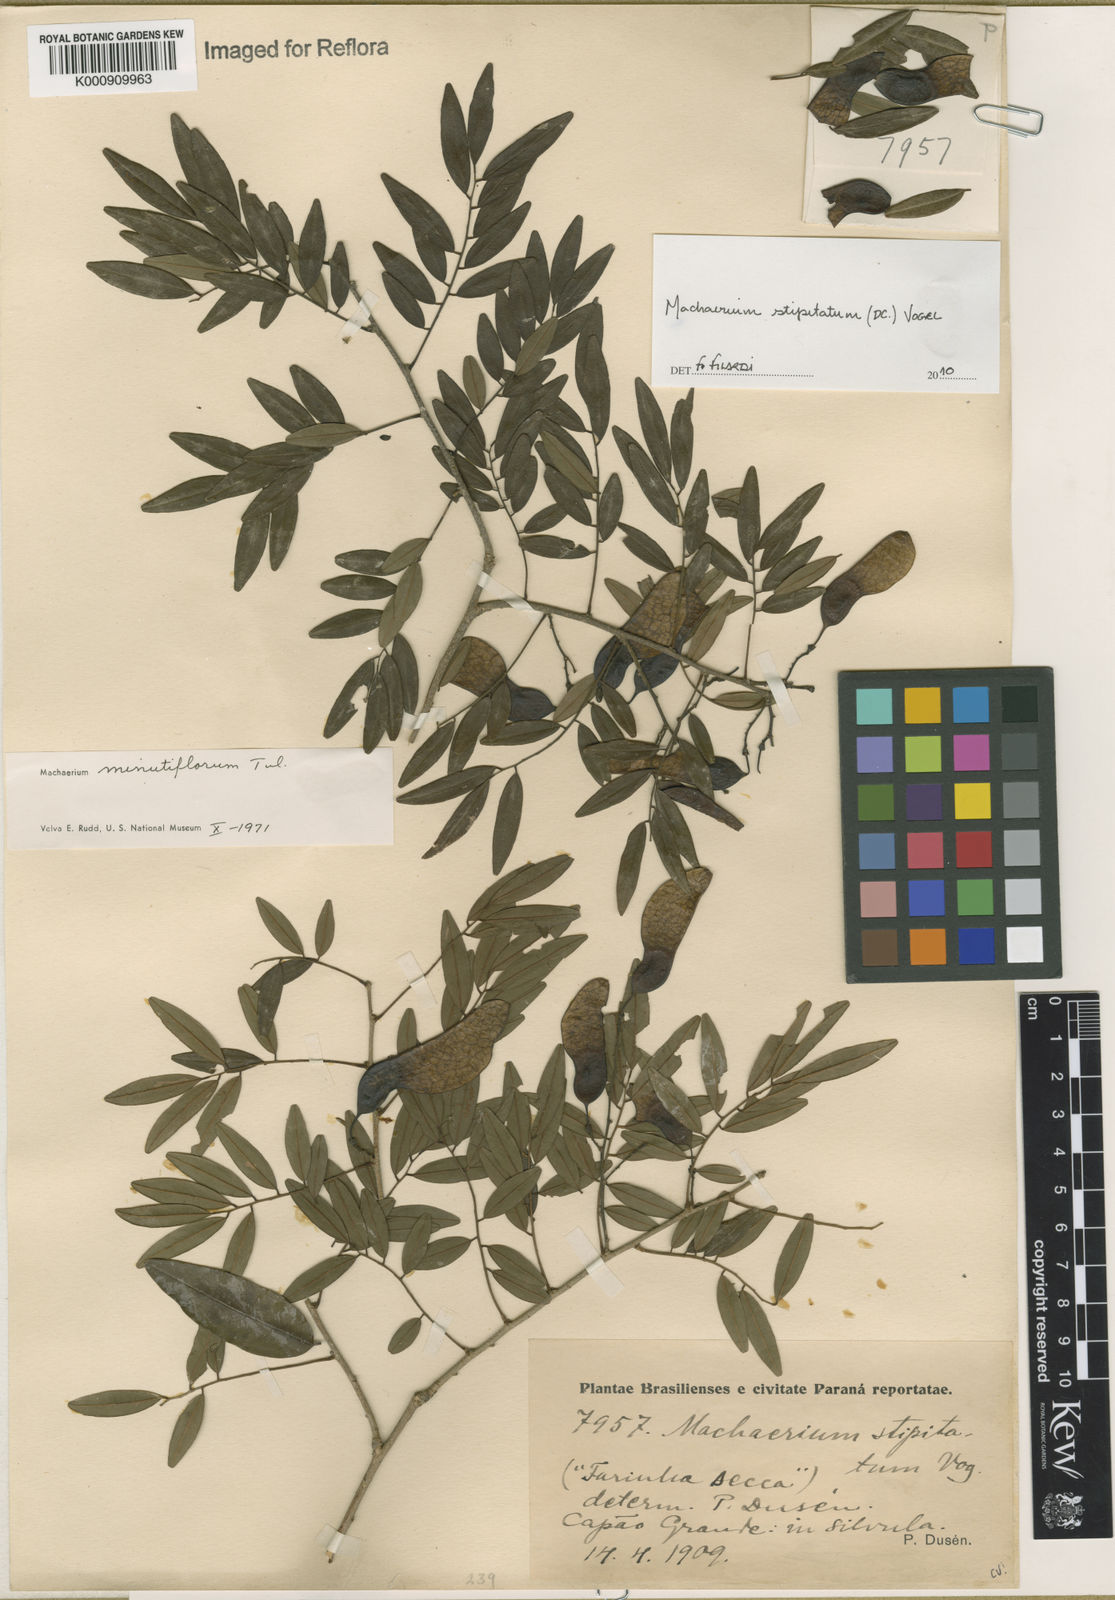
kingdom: Plantae
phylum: Tracheophyta
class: Magnoliopsida
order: Fabales
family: Fabaceae
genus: Machaerium
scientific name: Machaerium stipitatum
